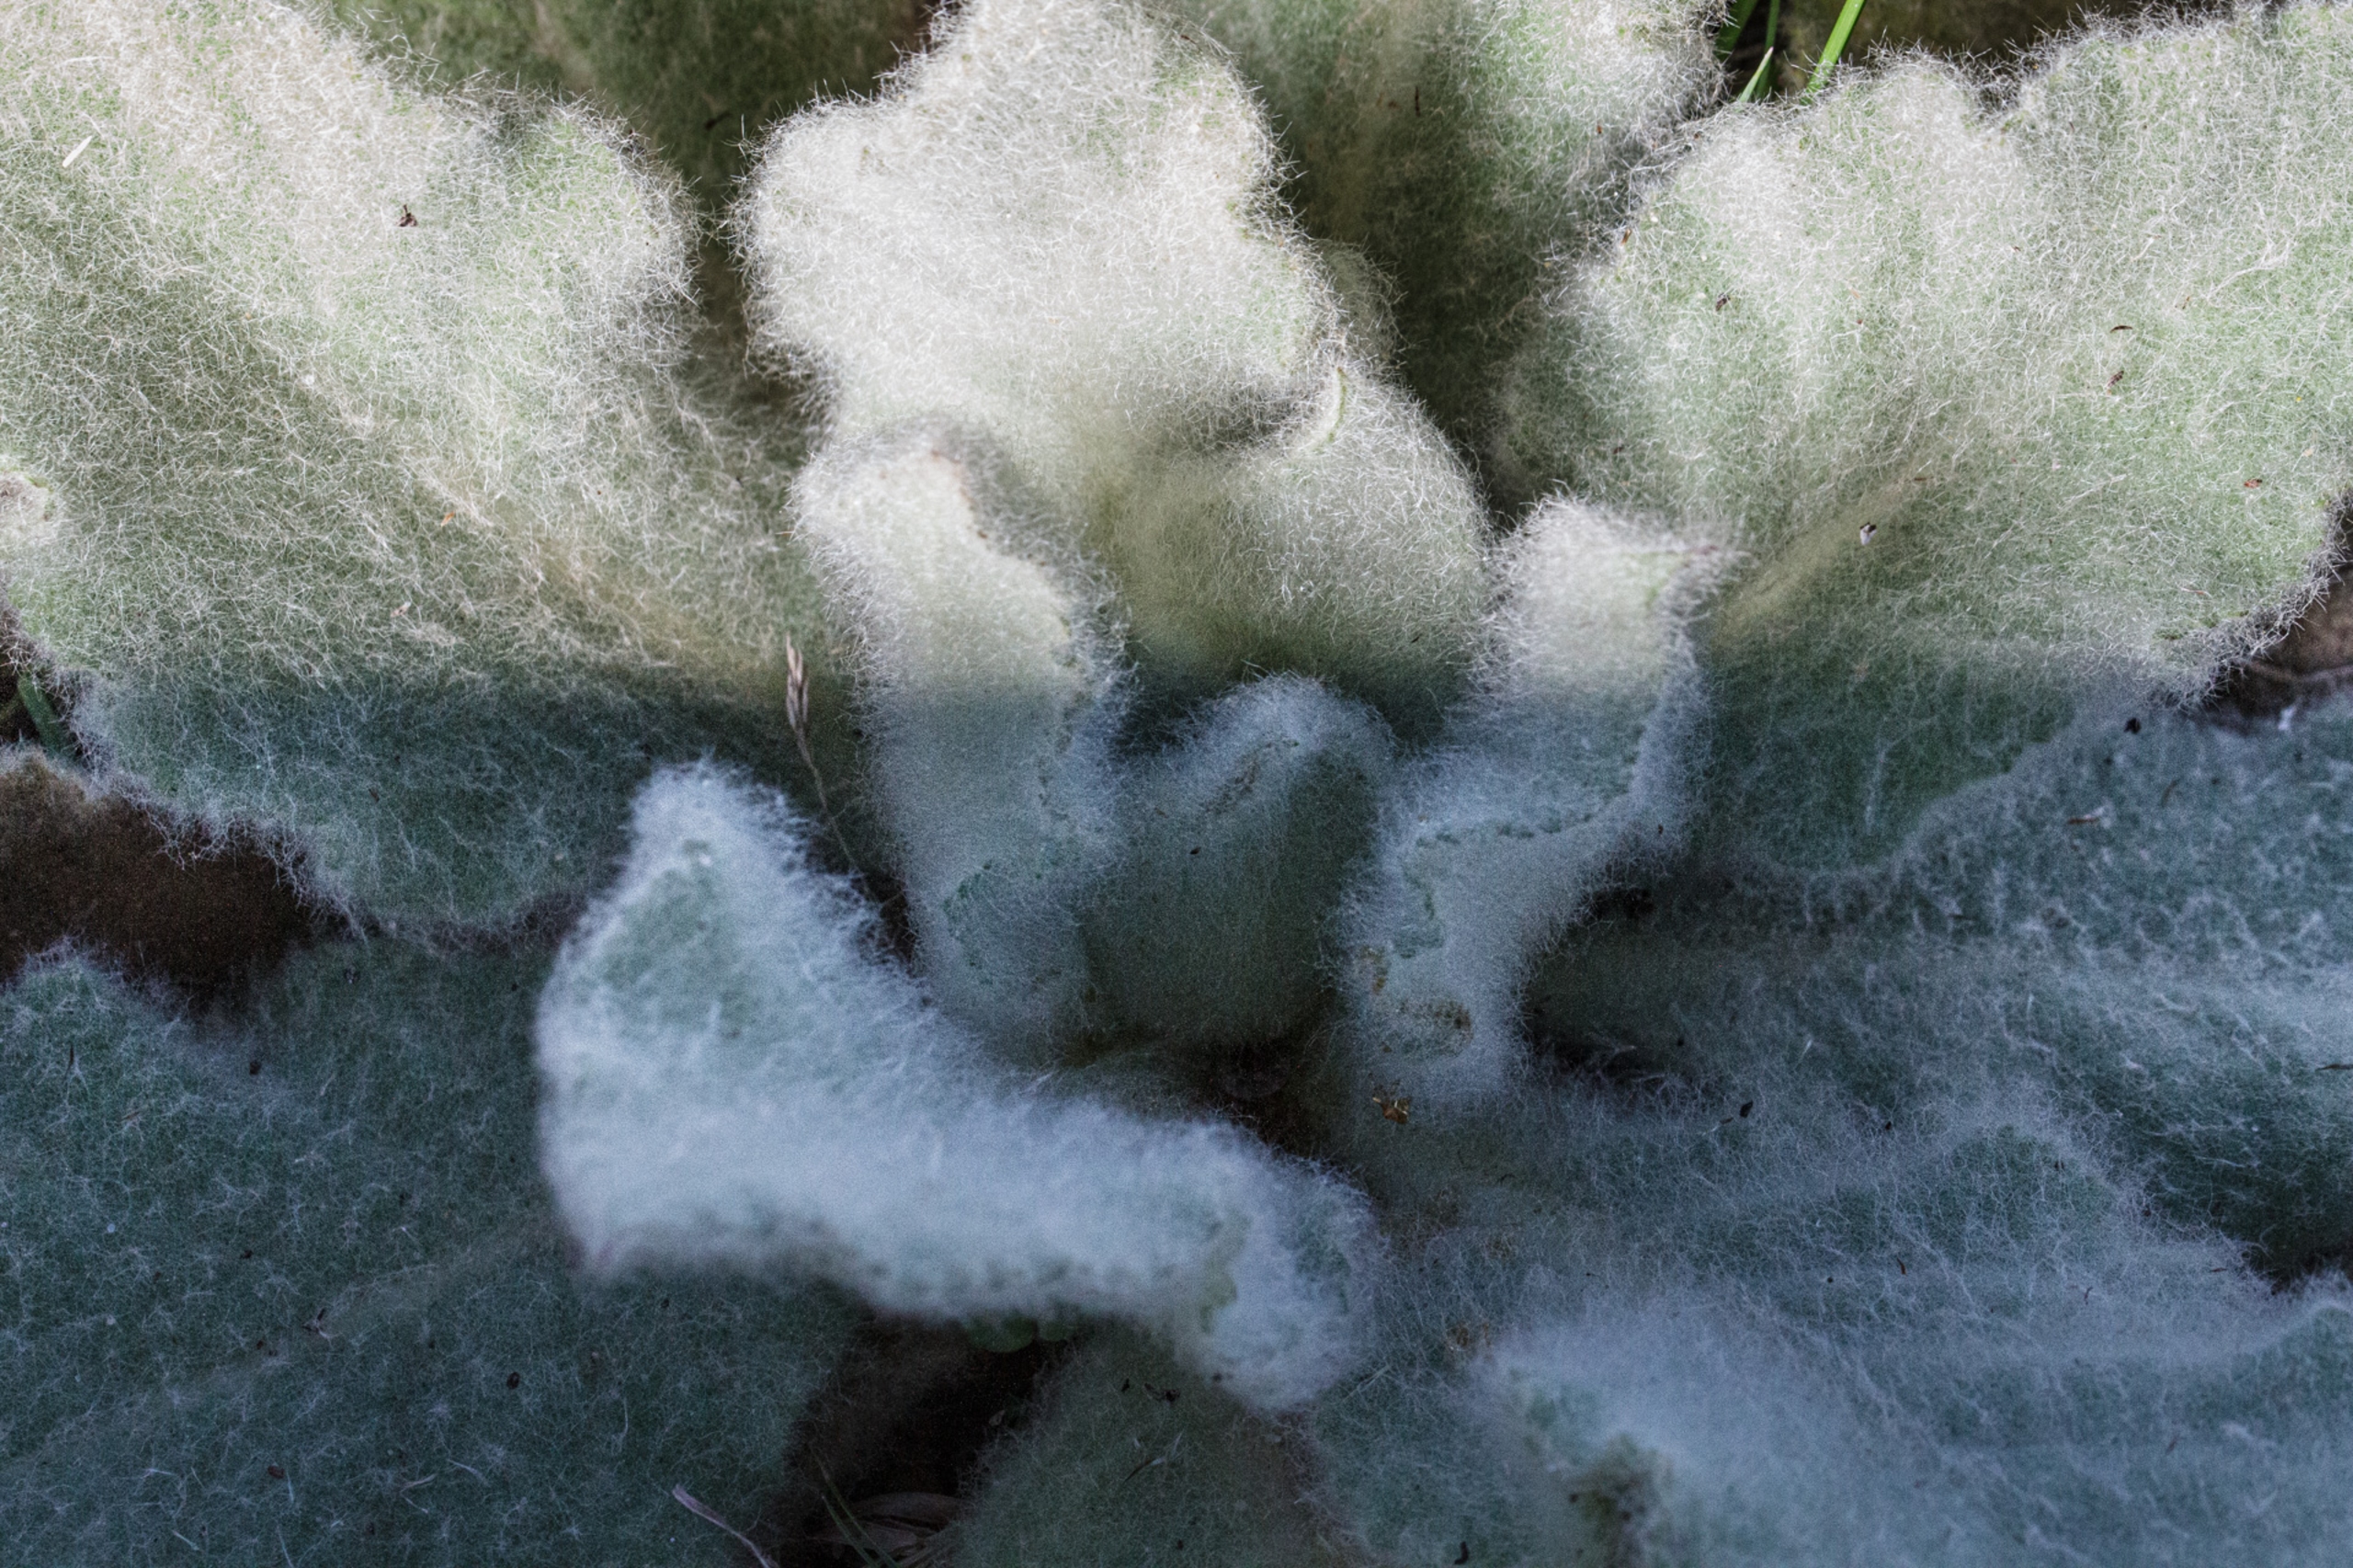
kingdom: Plantae
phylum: Tracheophyta
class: Magnoliopsida
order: Lamiales
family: Scrophulariaceae
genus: Verbascum
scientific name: Verbascum densiflorum
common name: Uldbladet kongelys
